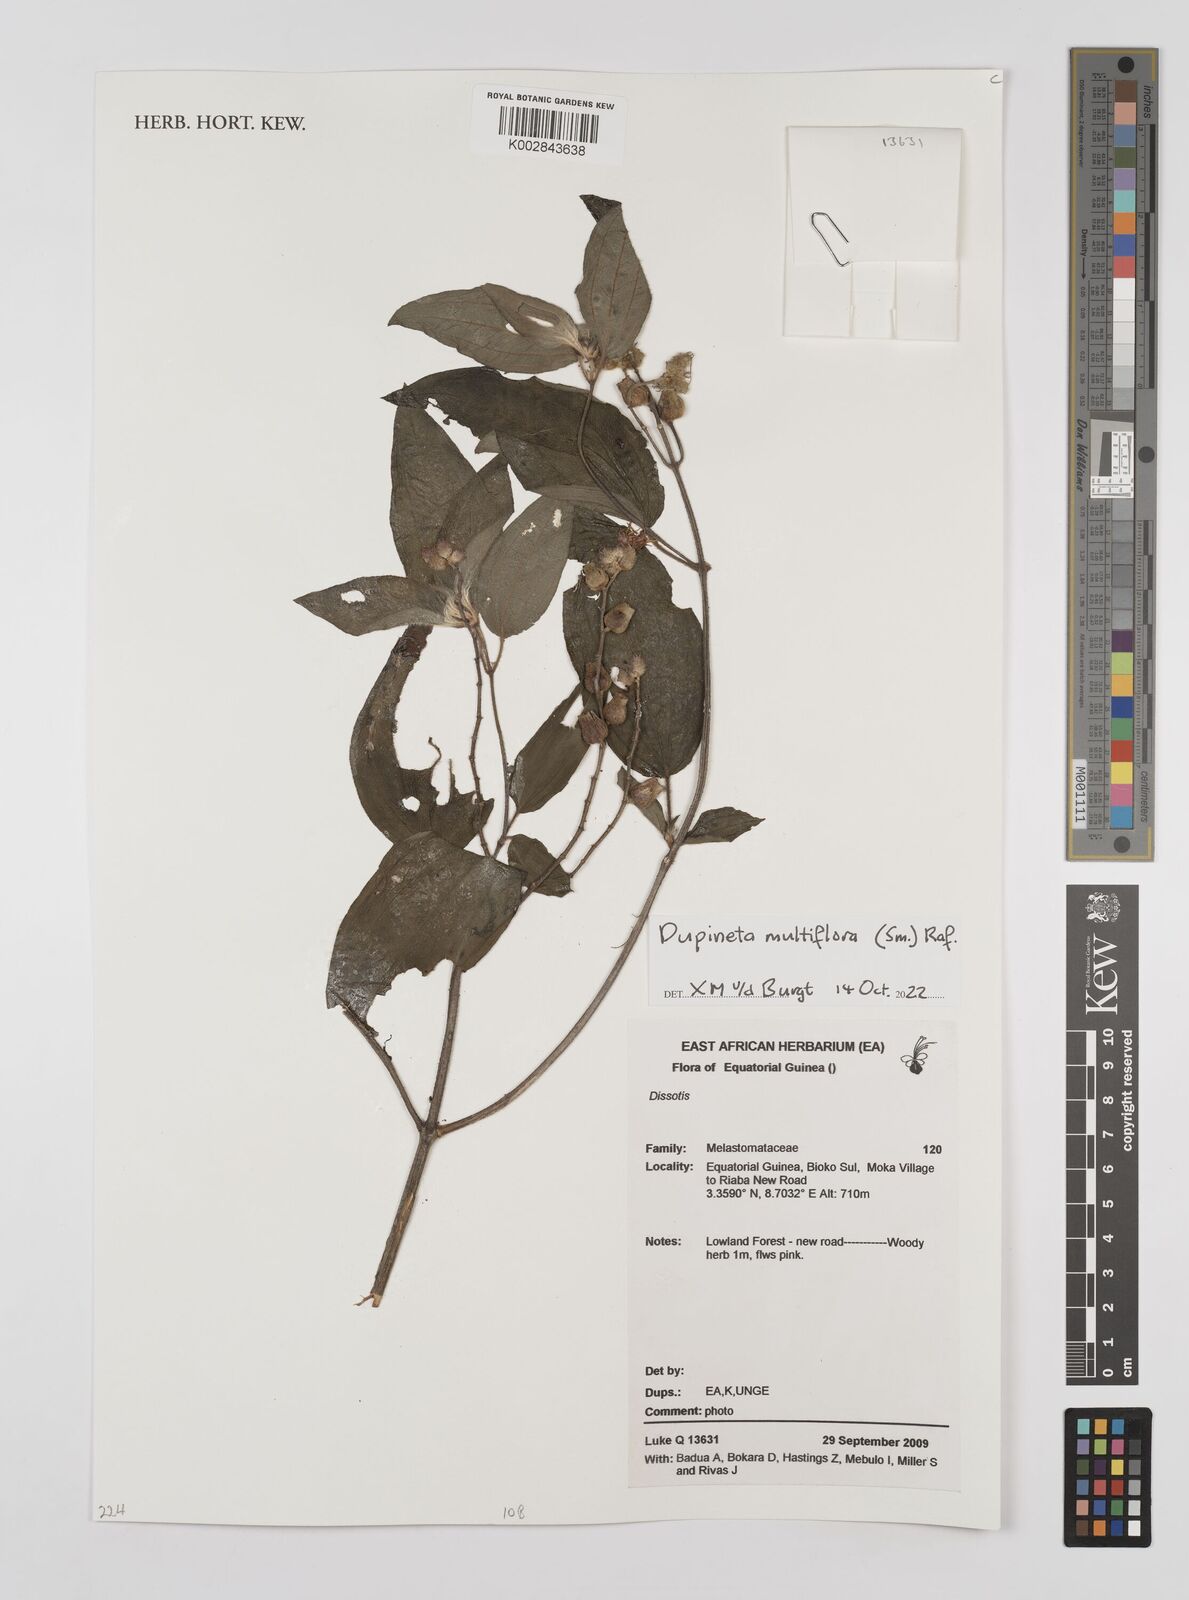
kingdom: Plantae
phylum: Tracheophyta
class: Magnoliopsida
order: Myrtales
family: Melastomataceae
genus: Dupineta
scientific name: Dupineta multiflora
